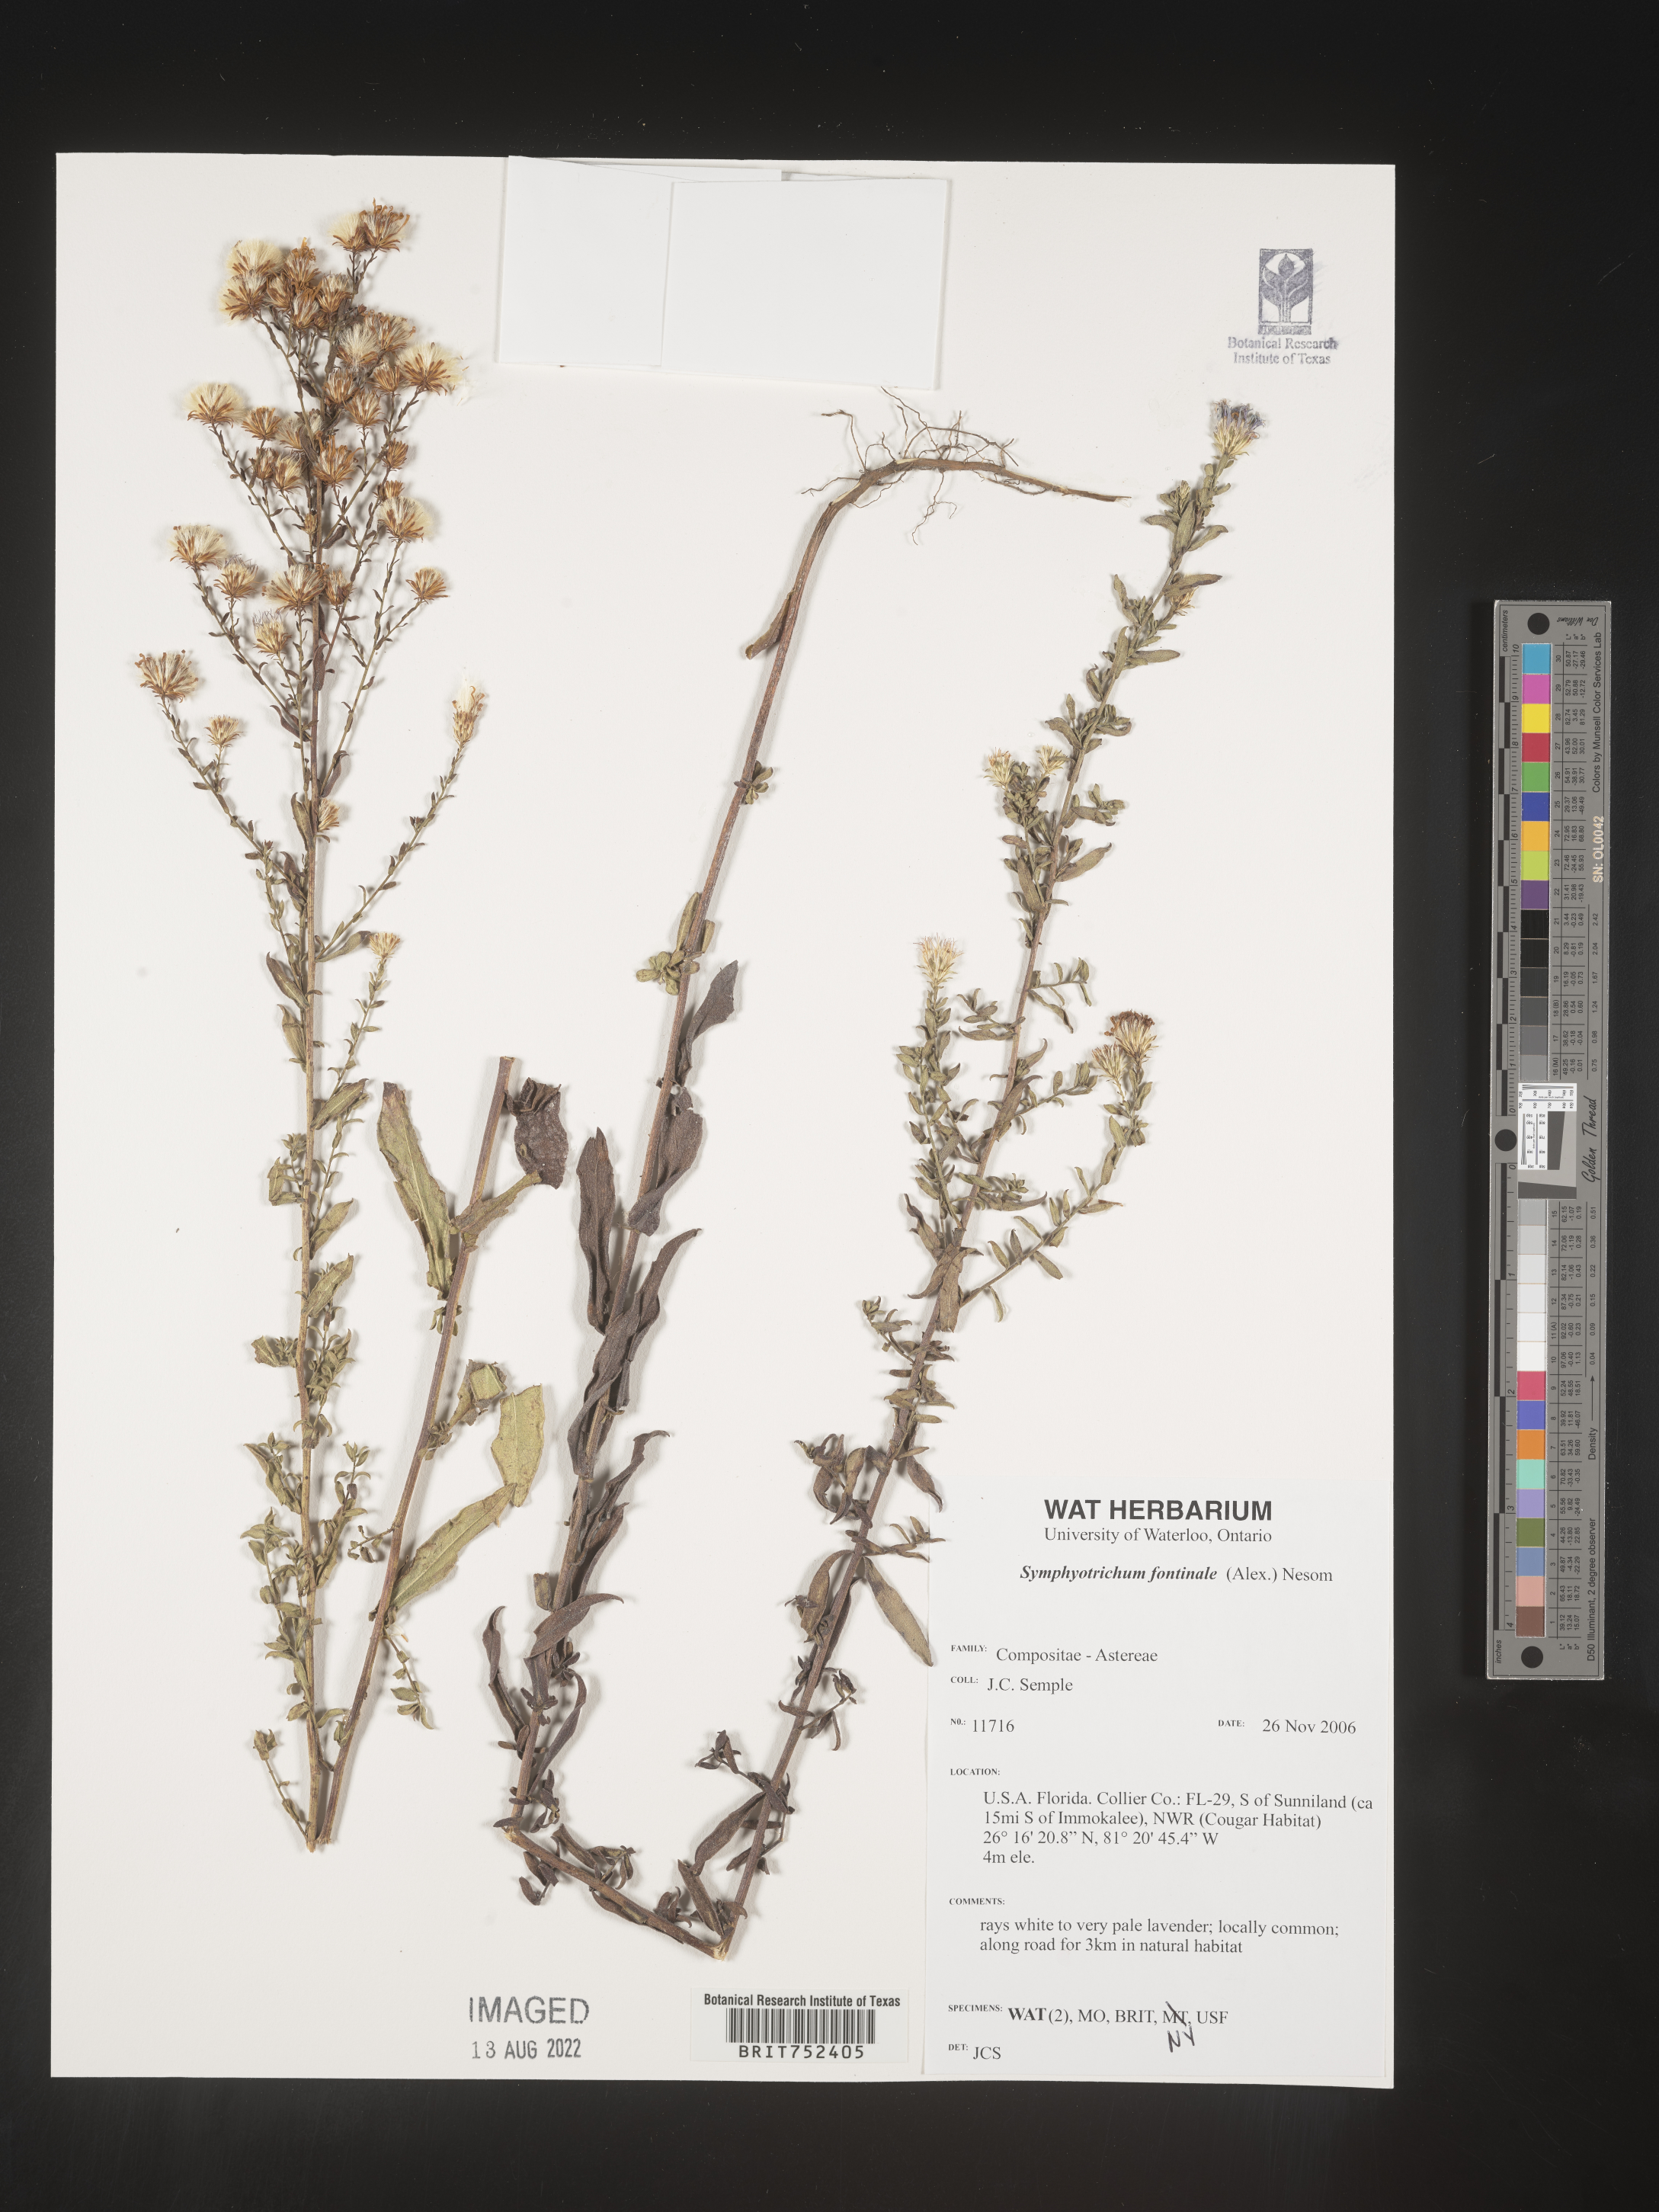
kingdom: Plantae
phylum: Tracheophyta
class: Magnoliopsida
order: Asterales
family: Asteraceae
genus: Symphyotrichum
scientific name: Symphyotrichum fontinale
